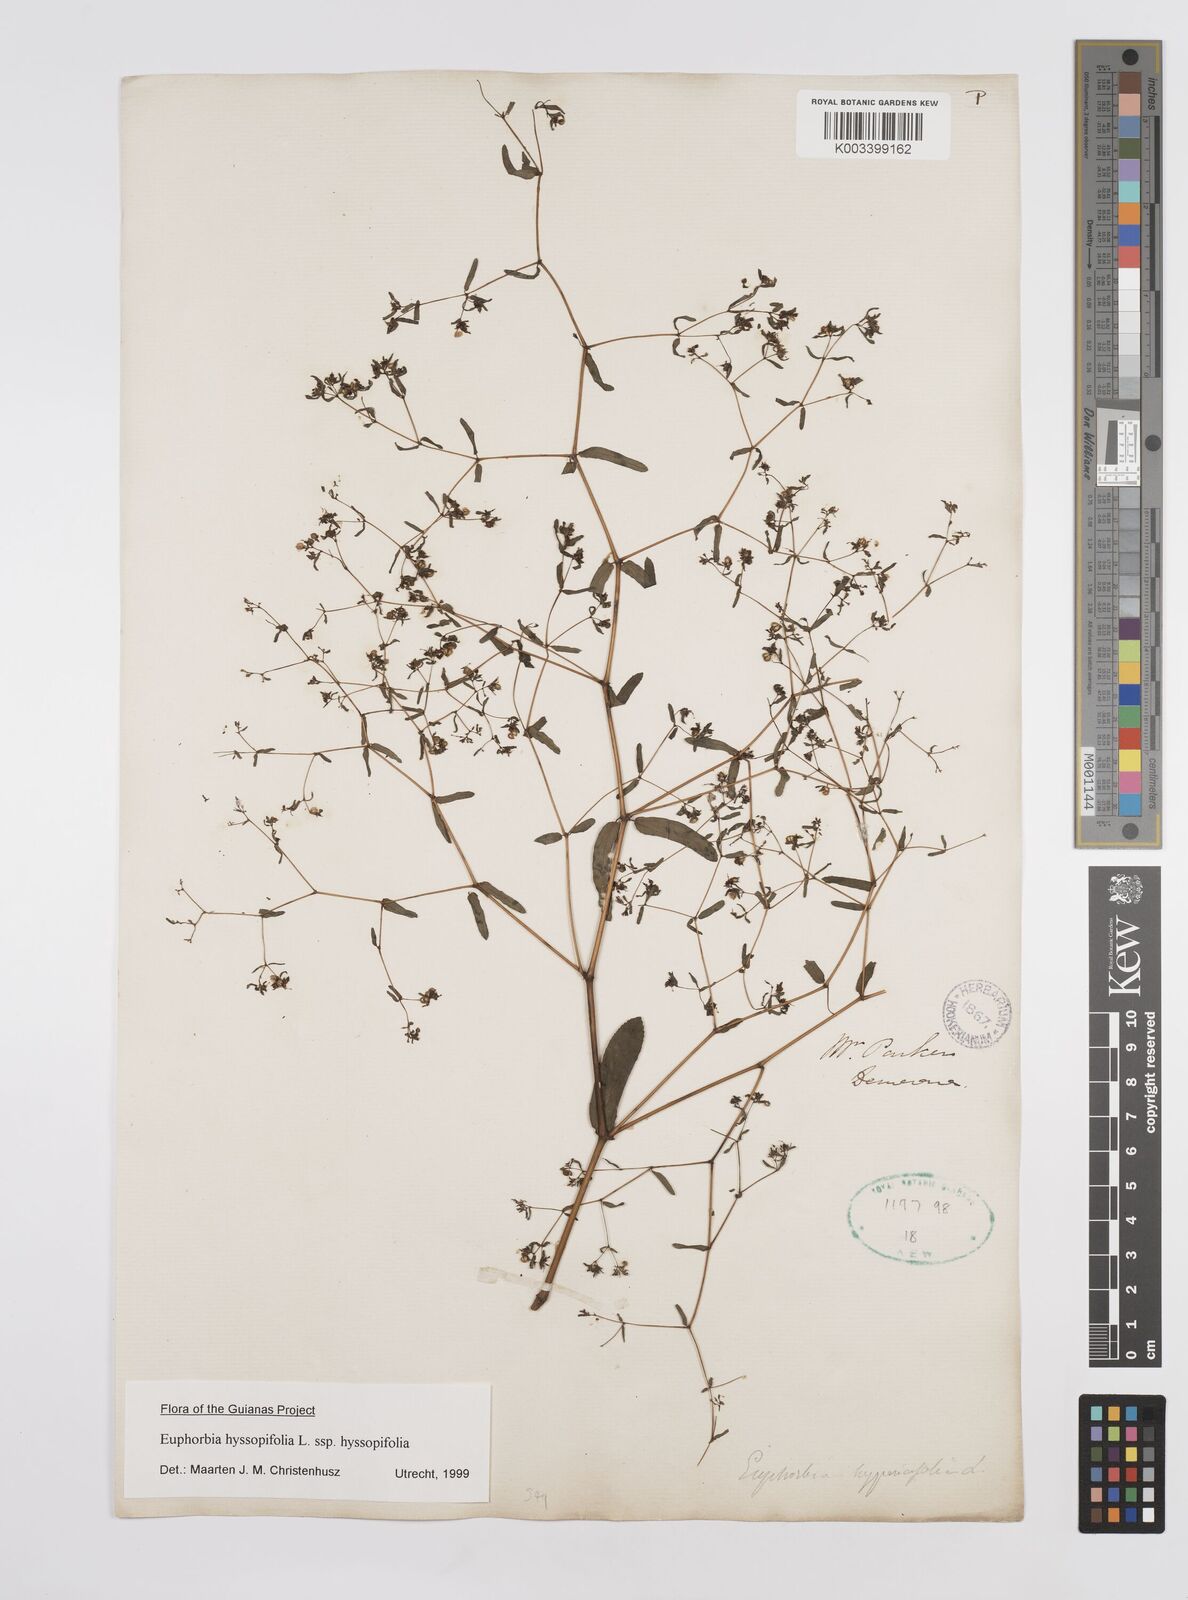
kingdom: Plantae
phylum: Tracheophyta
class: Magnoliopsida
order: Malpighiales
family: Euphorbiaceae
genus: Euphorbia
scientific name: Euphorbia hyssopifolia
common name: Hyssopleaf sandmat
